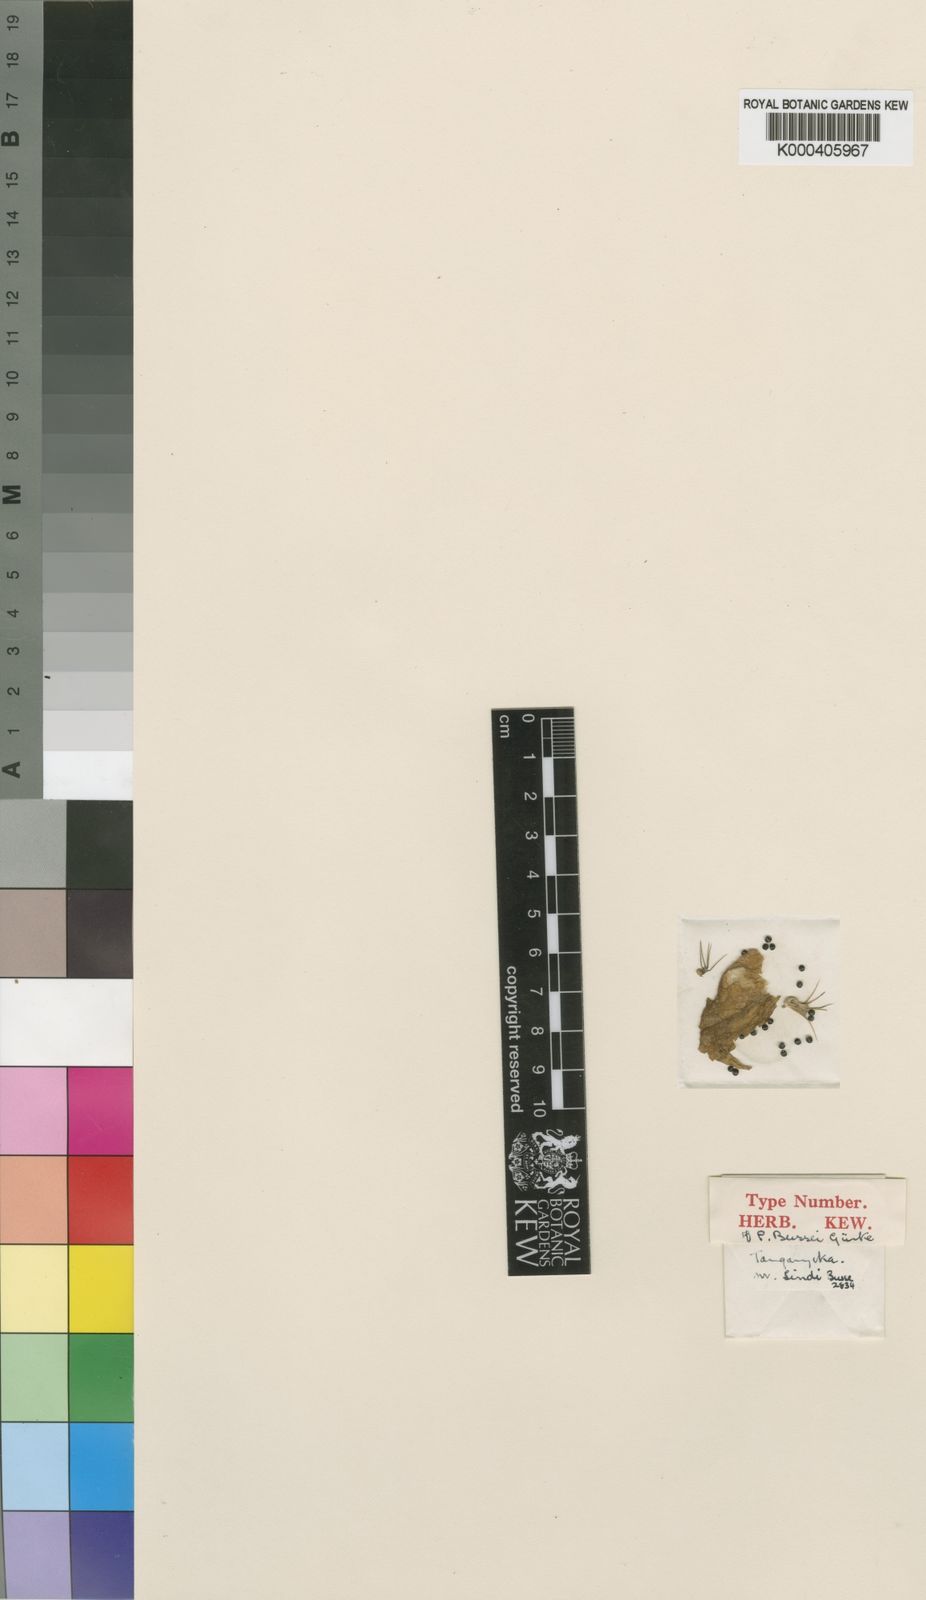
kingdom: Plantae
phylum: Tracheophyta
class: Magnoliopsida
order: Lamiales
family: Lamiaceae
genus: Coleus
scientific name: Coleus
